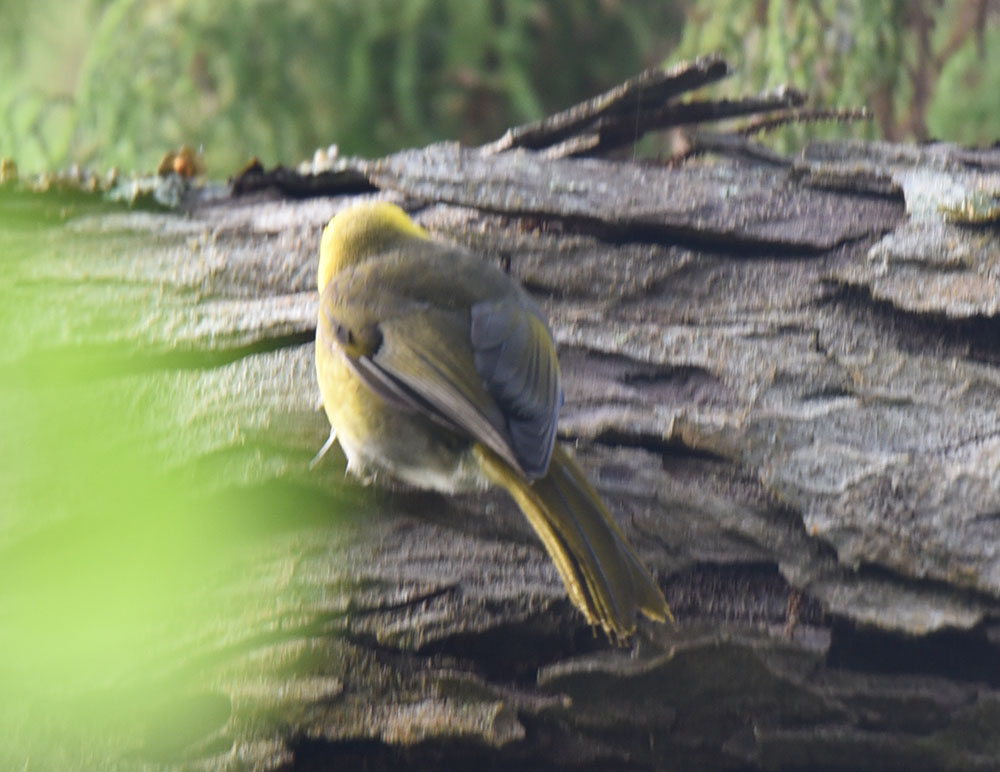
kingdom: Animalia
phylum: Chordata
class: Aves
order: Passeriformes
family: Acanthizidae
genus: Mohoua
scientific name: Mohoua ochrocephala
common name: Yellowhead
